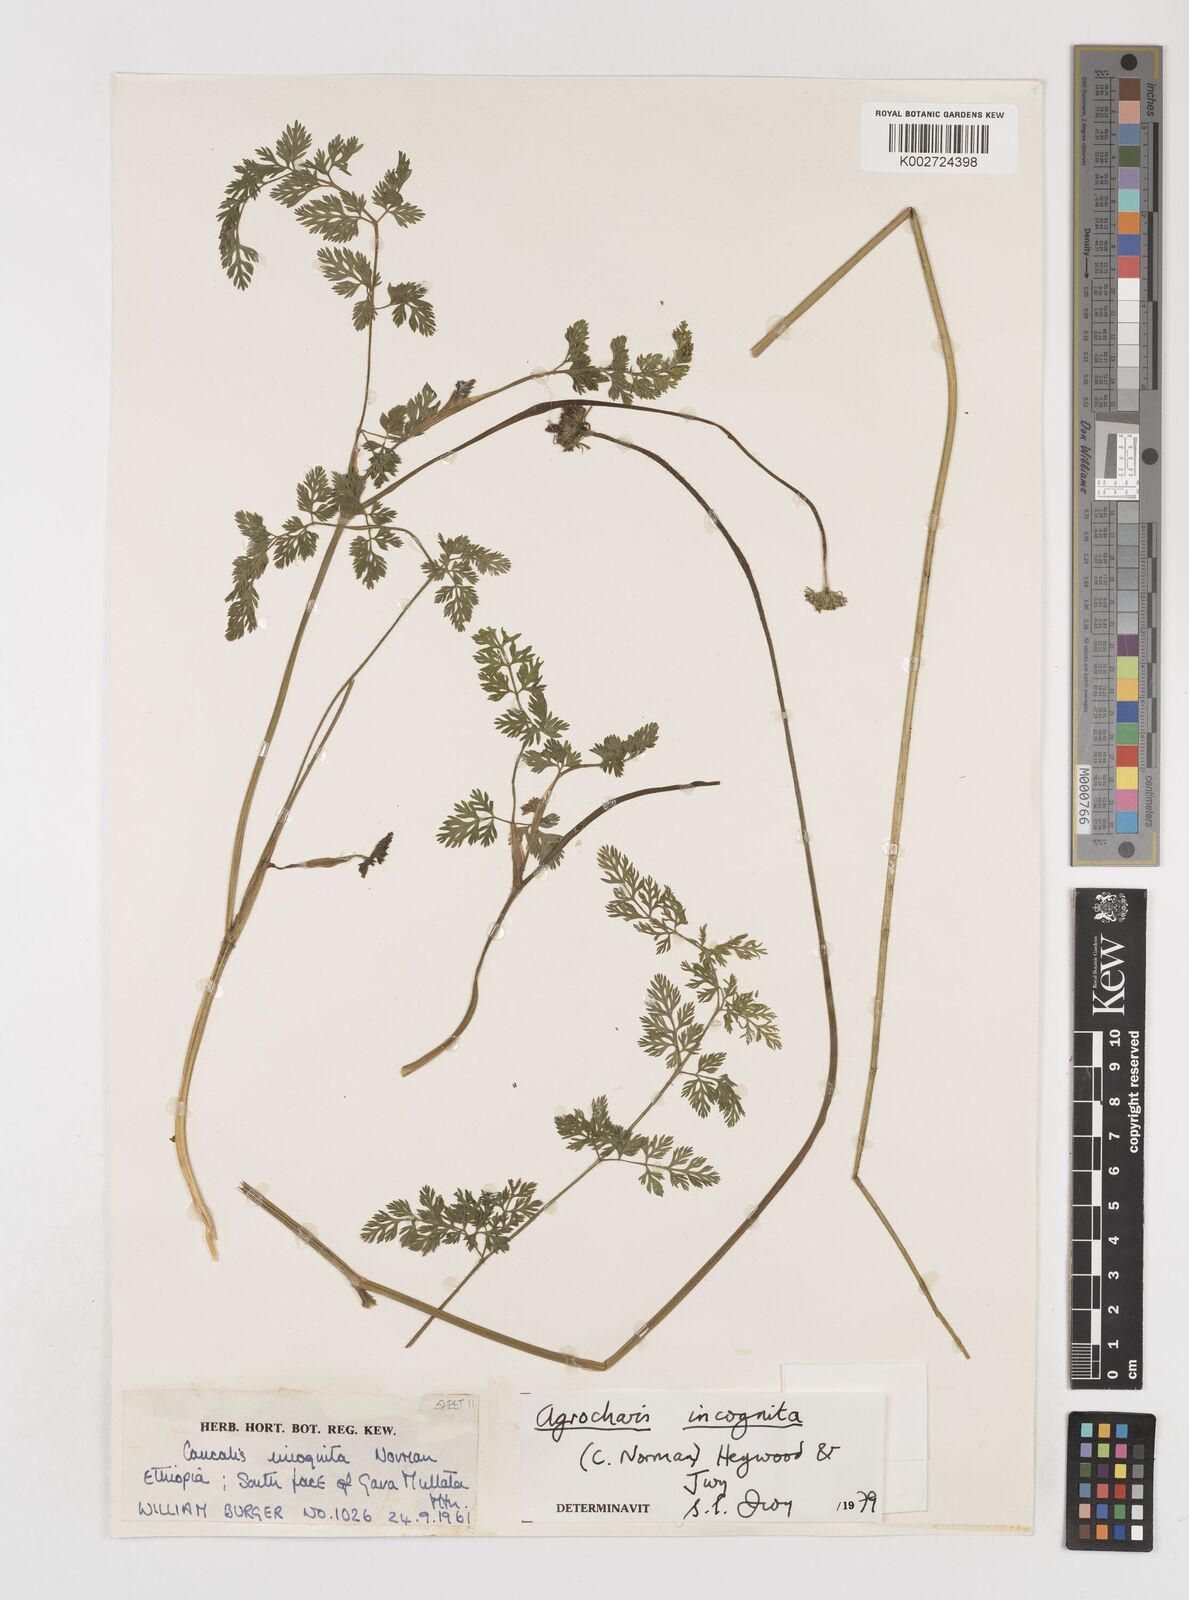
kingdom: Plantae
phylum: Tracheophyta
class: Magnoliopsida
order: Apiales
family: Apiaceae
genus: Daucus
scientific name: Daucus incognitus
